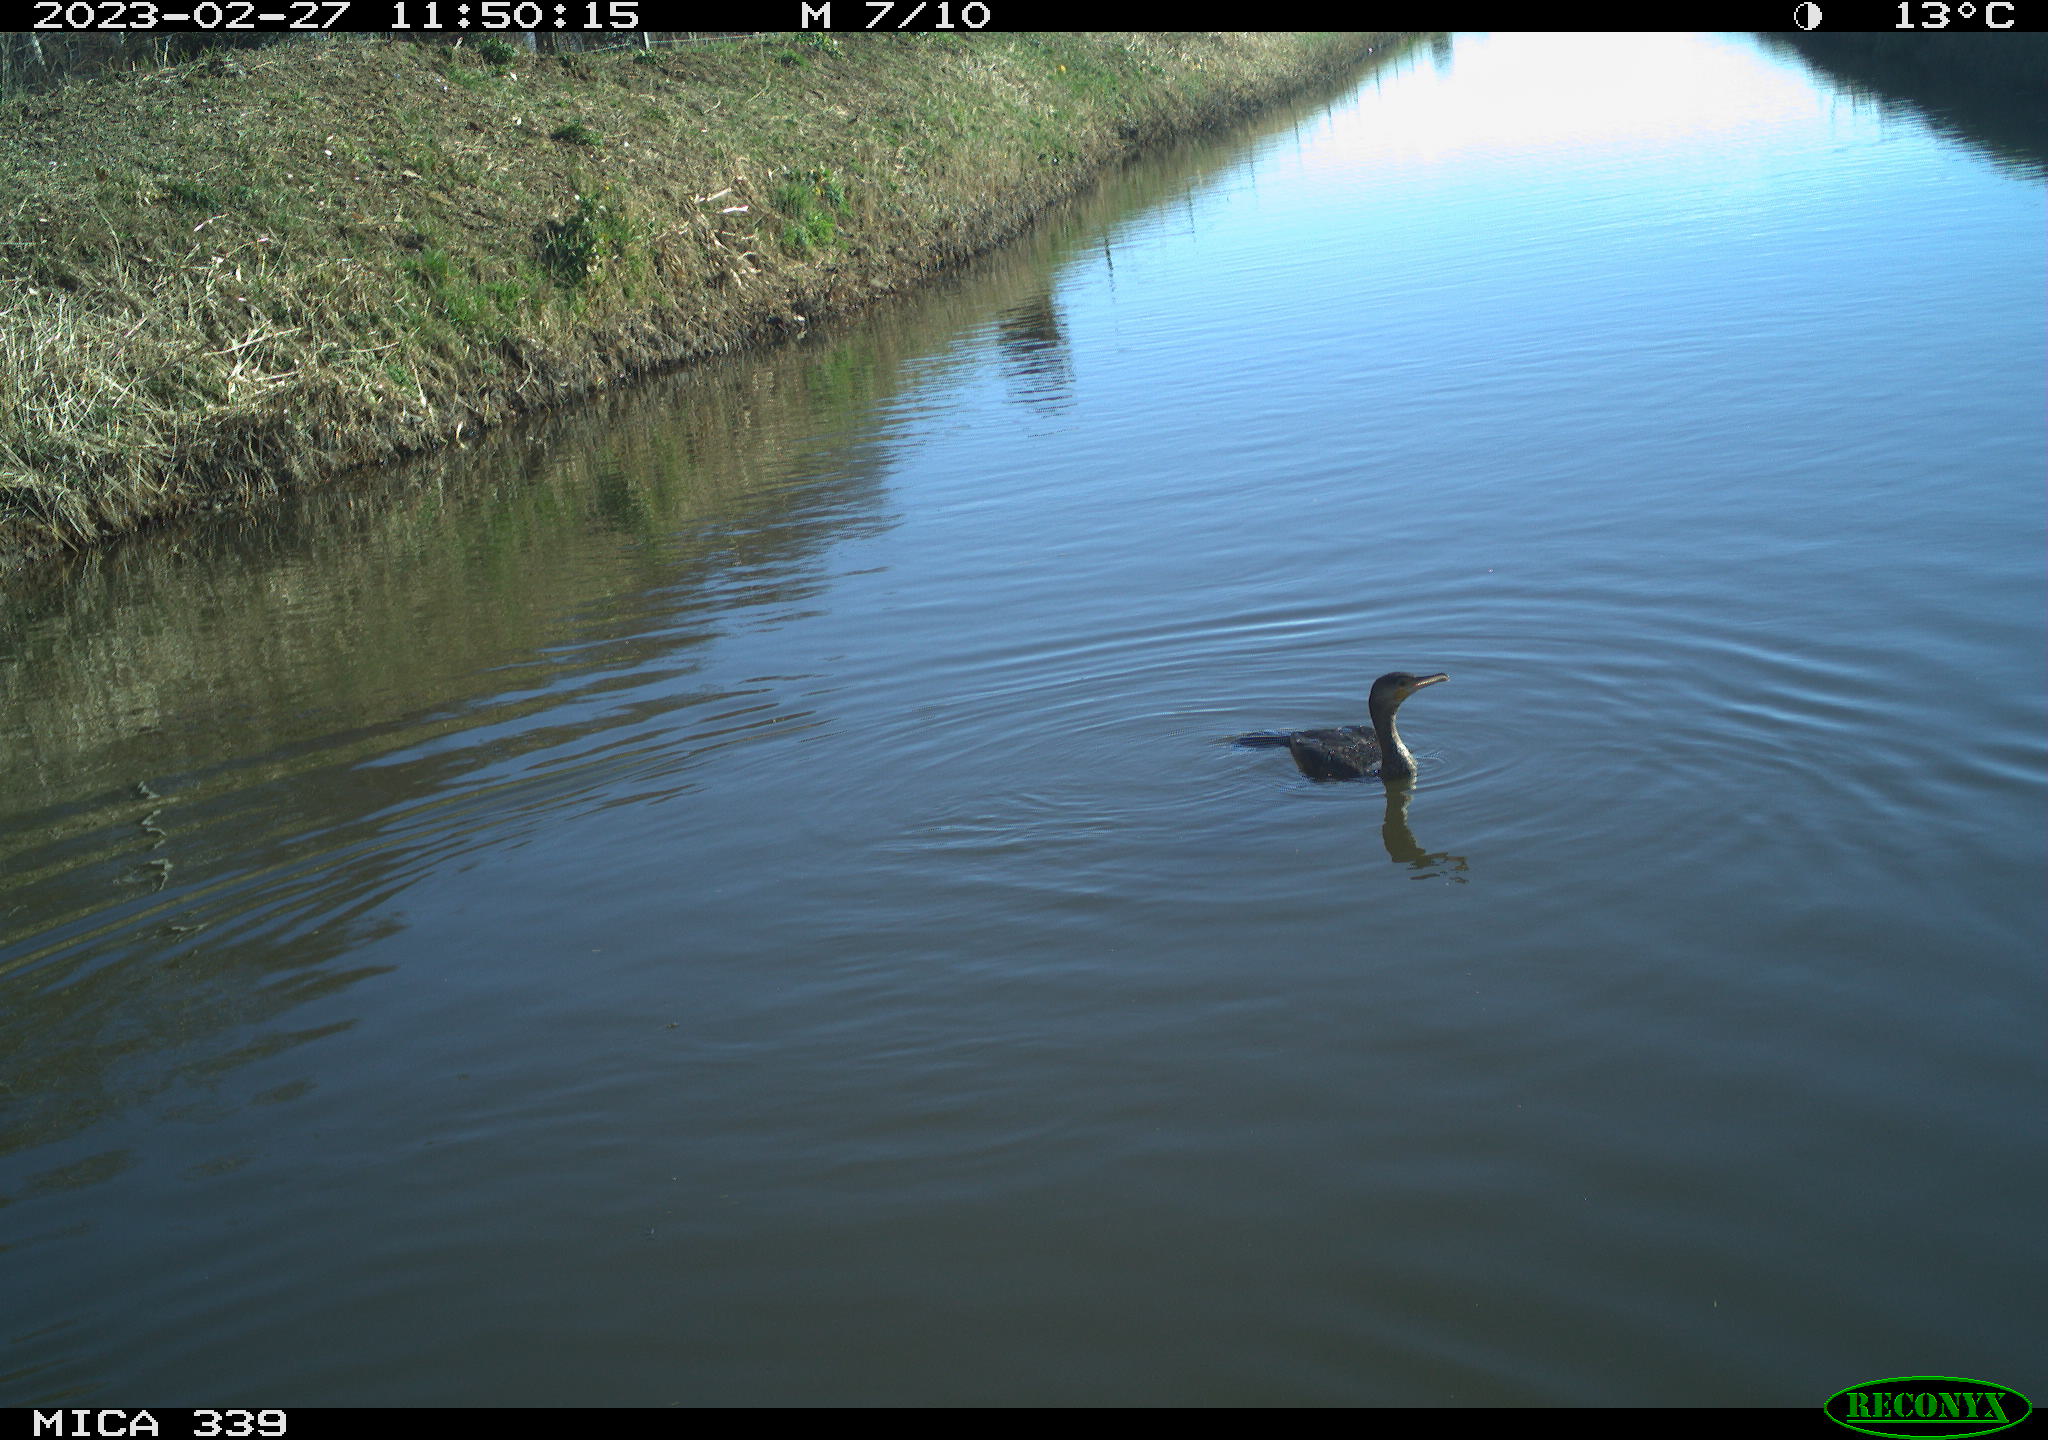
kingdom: Animalia
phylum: Chordata
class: Aves
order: Suliformes
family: Phalacrocoracidae
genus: Phalacrocorax
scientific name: Phalacrocorax carbo
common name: Great cormorant
